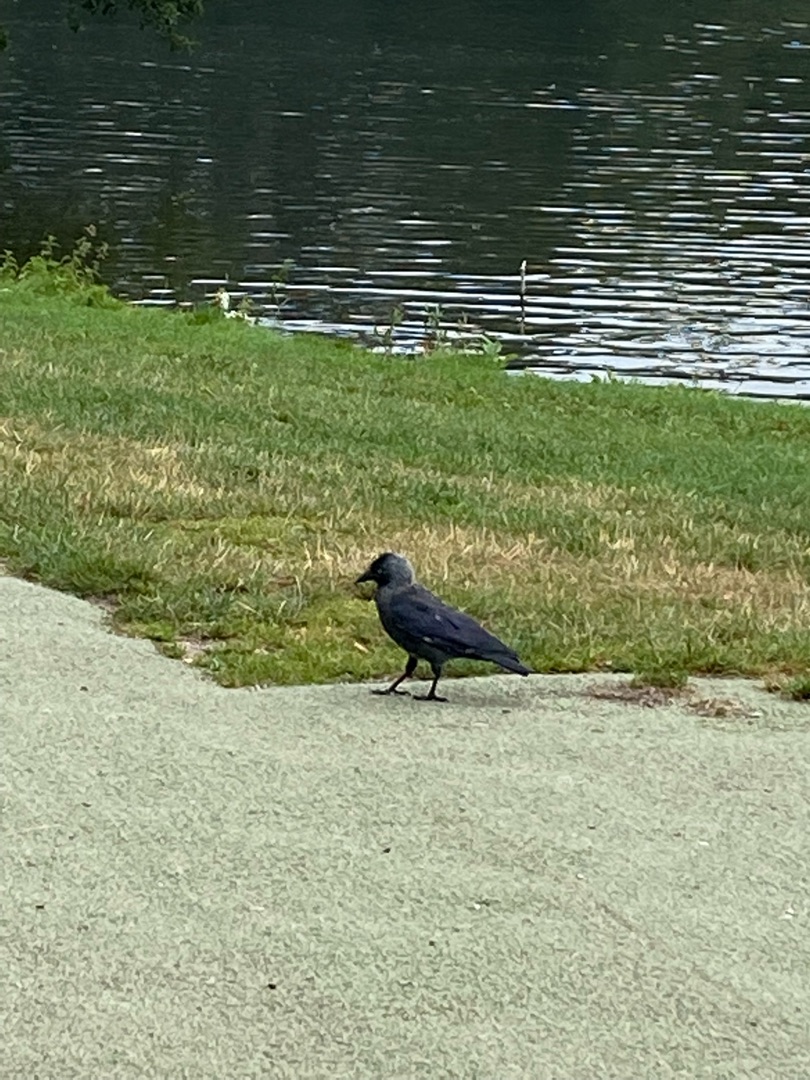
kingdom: Animalia
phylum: Chordata
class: Aves
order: Passeriformes
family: Corvidae
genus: Coloeus
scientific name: Coloeus monedula
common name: Allike
